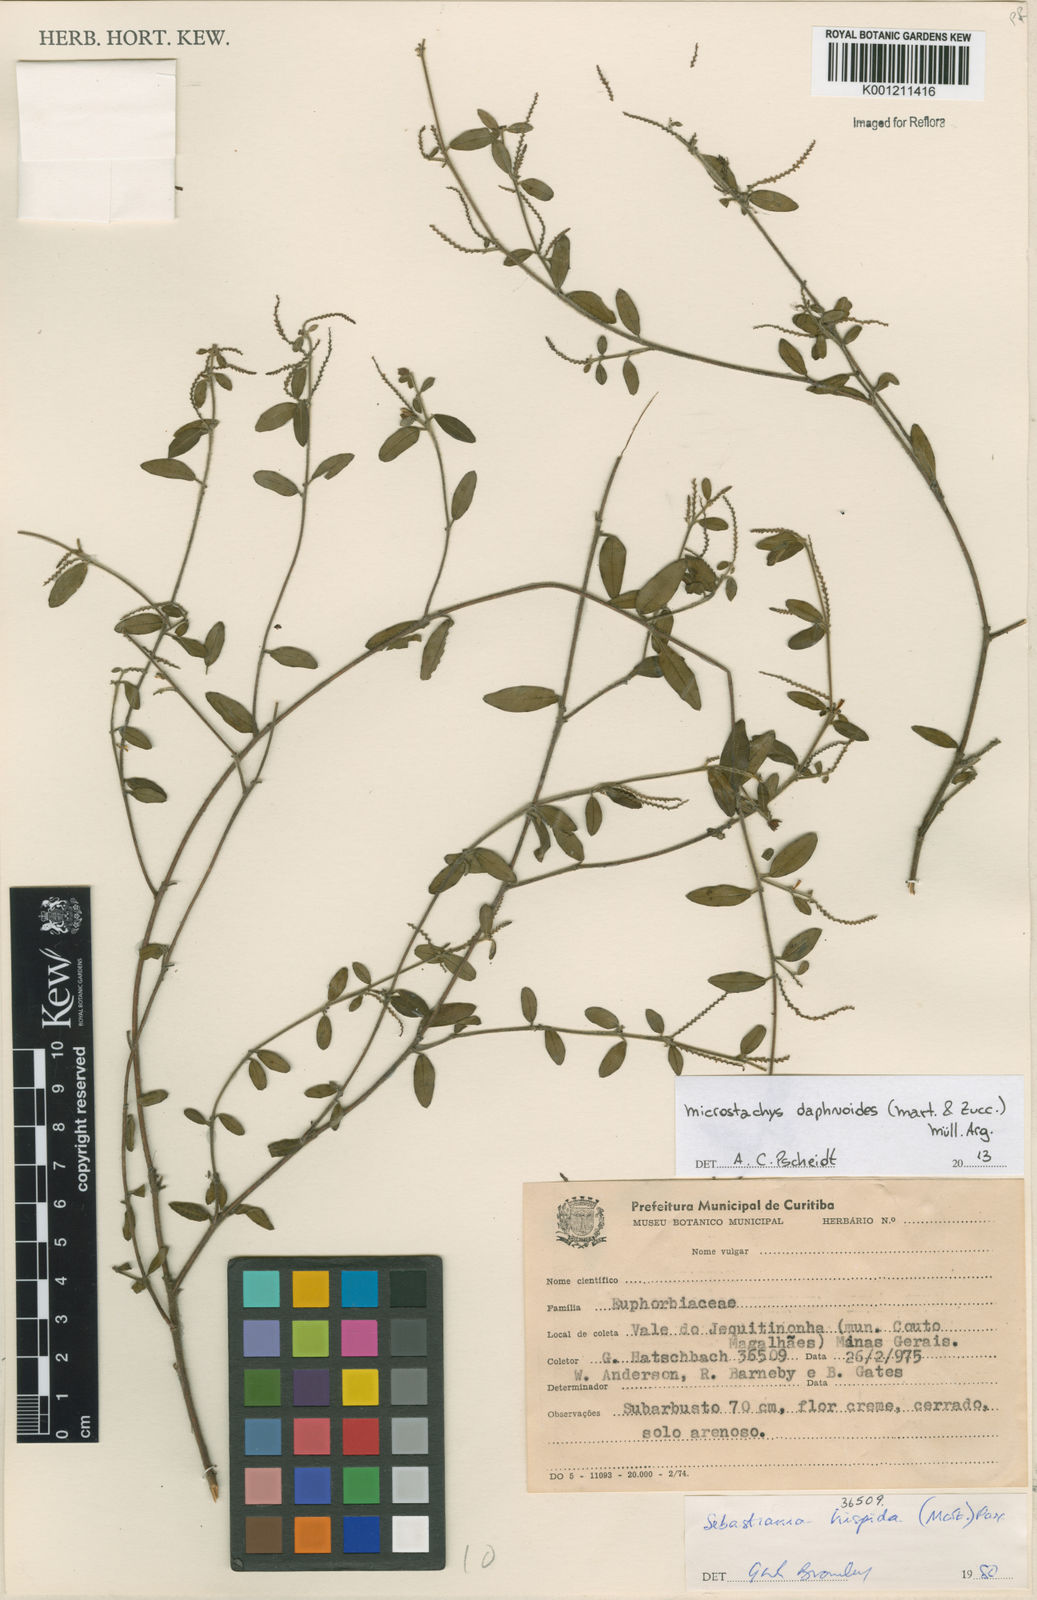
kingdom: Plantae
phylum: Tracheophyta
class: Magnoliopsida
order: Malpighiales
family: Euphorbiaceae
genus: Microstachys
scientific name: Microstachys
